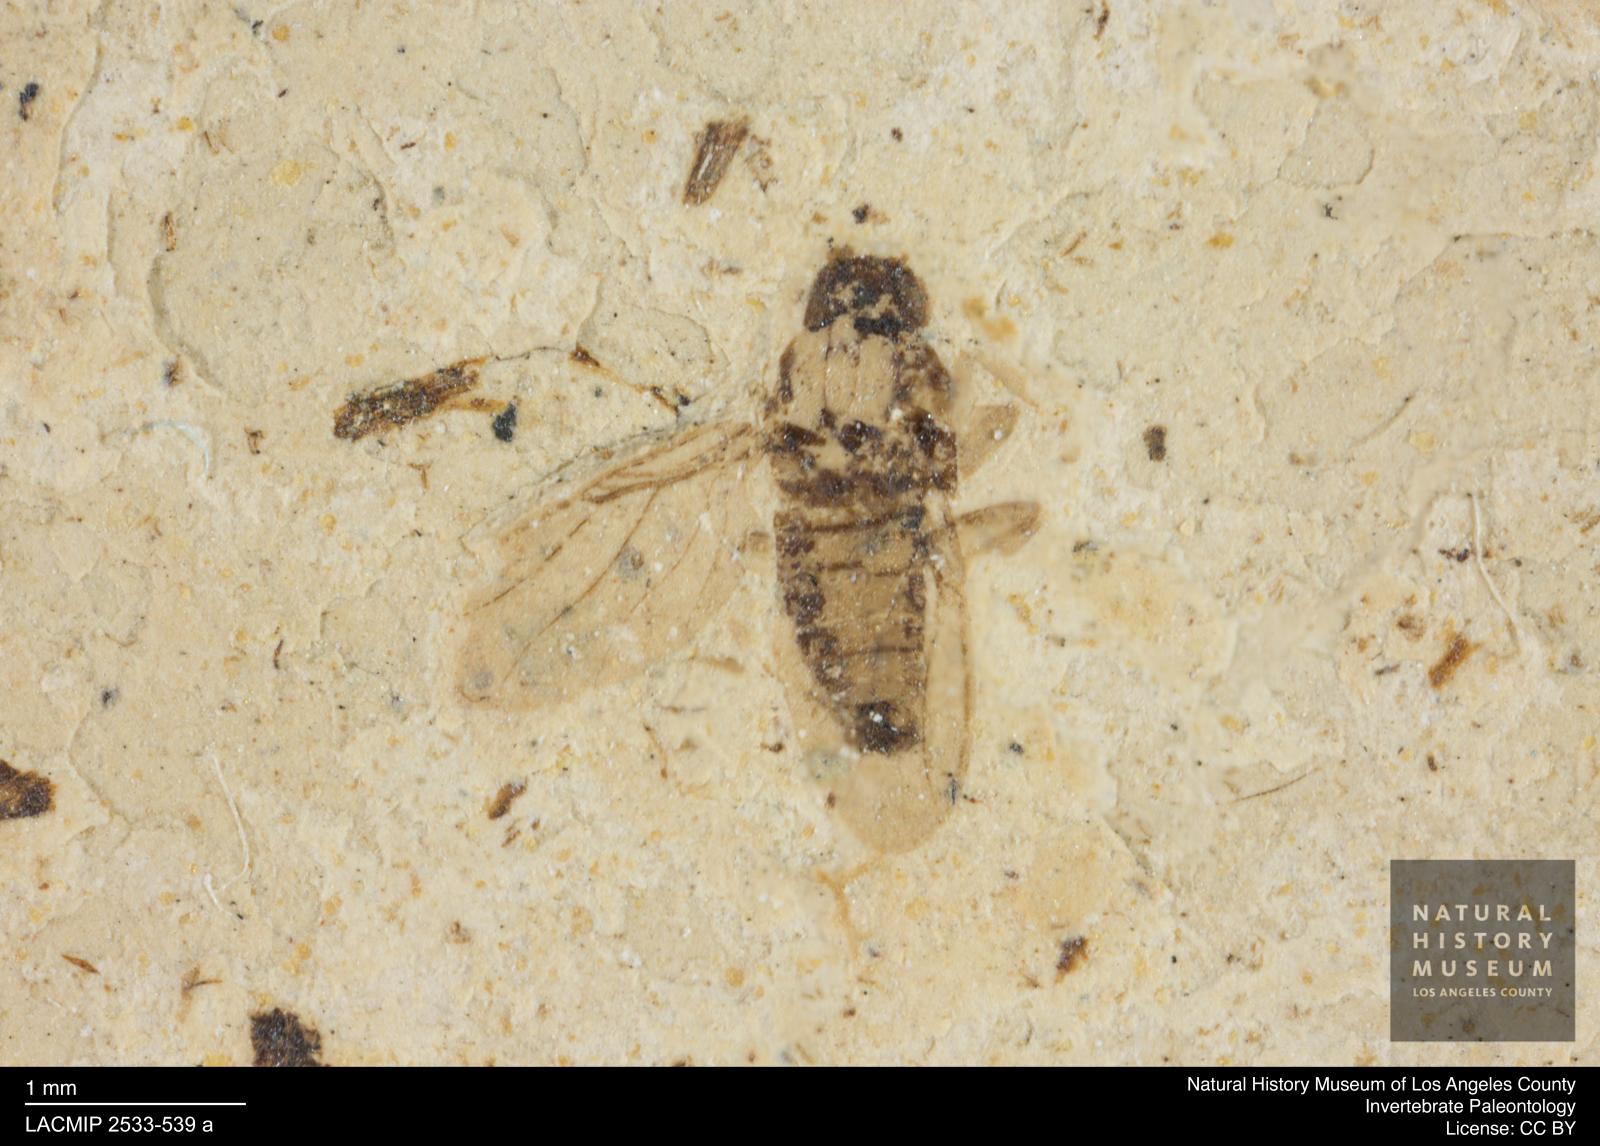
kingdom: Animalia
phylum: Arthropoda
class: Insecta
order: Diptera
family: Phoridae
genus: Gymnophora
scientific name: Gymnophora tertiara
